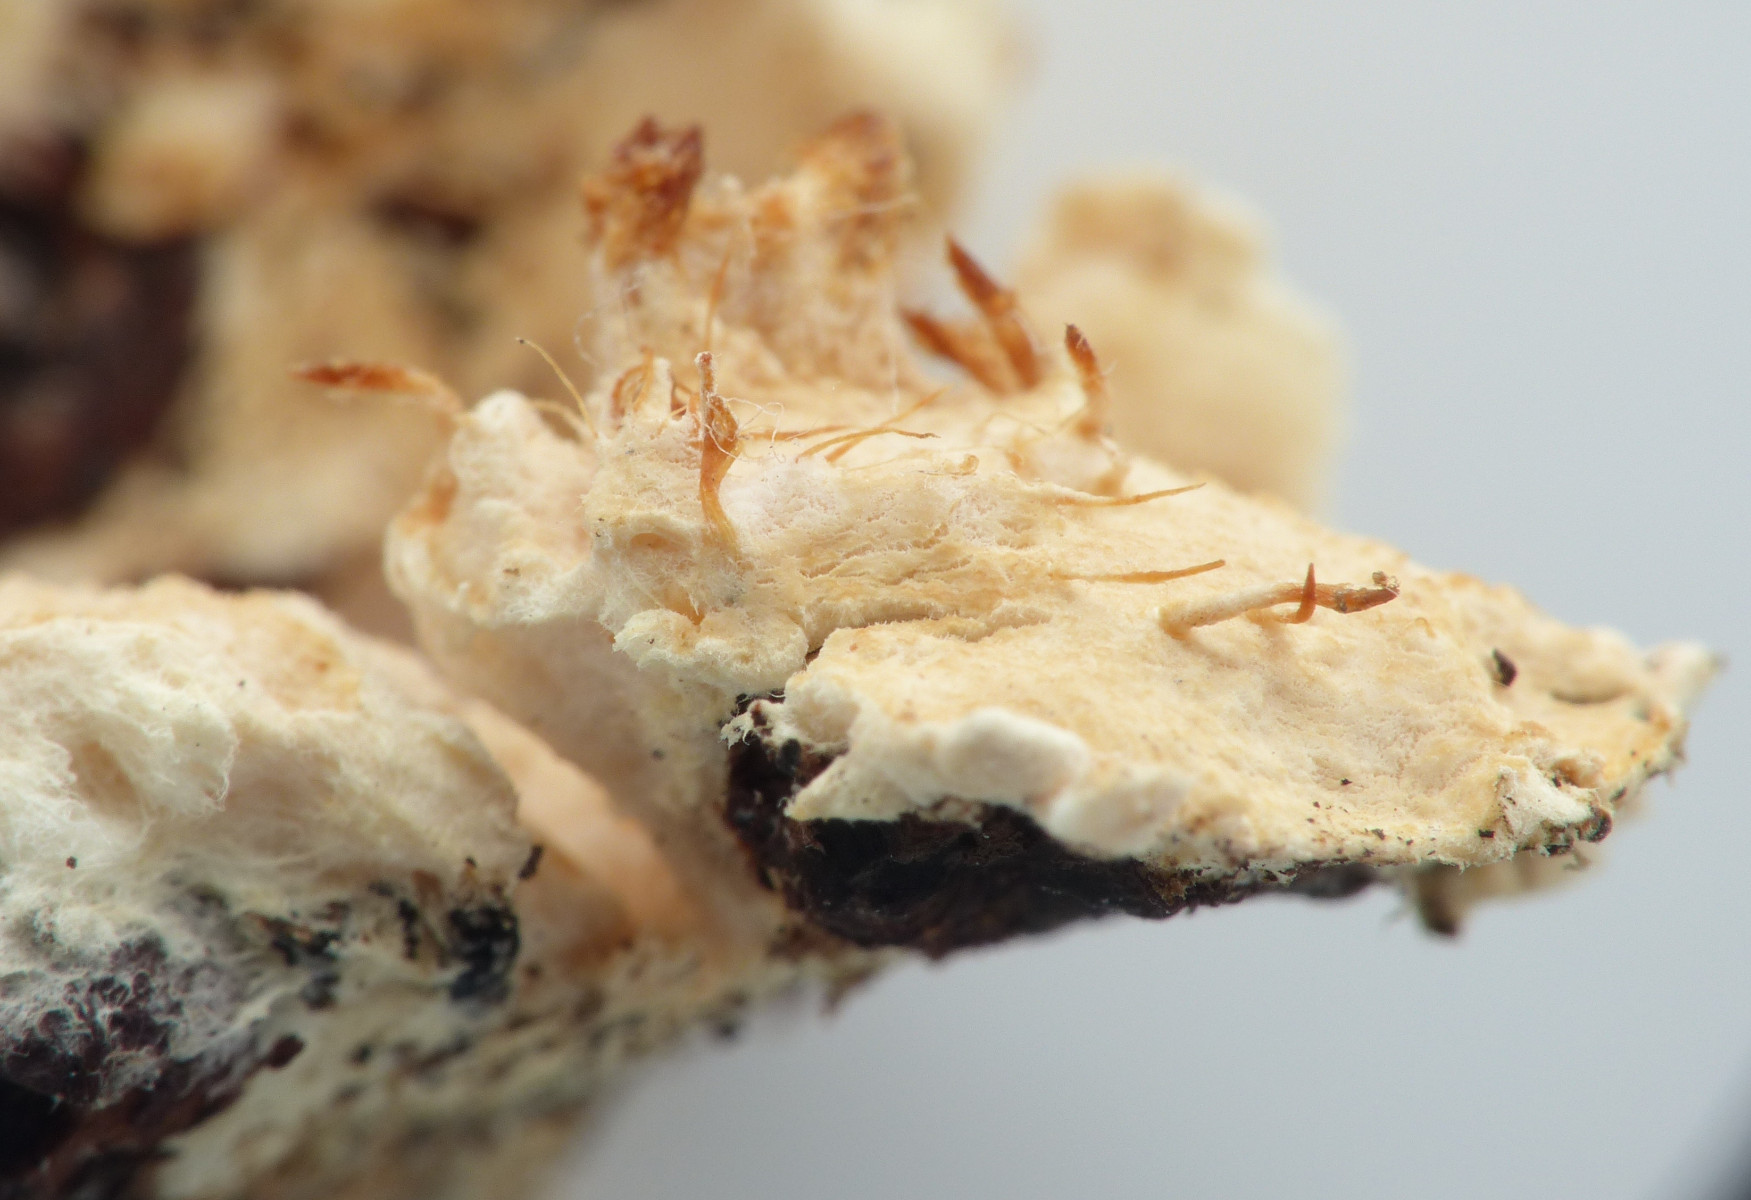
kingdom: Fungi
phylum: Basidiomycota
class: Agaricomycetes
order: Polyporales
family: Hyphodermataceae
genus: Hyphoderma
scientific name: Hyphoderma setigerum
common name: håret kalkskind
